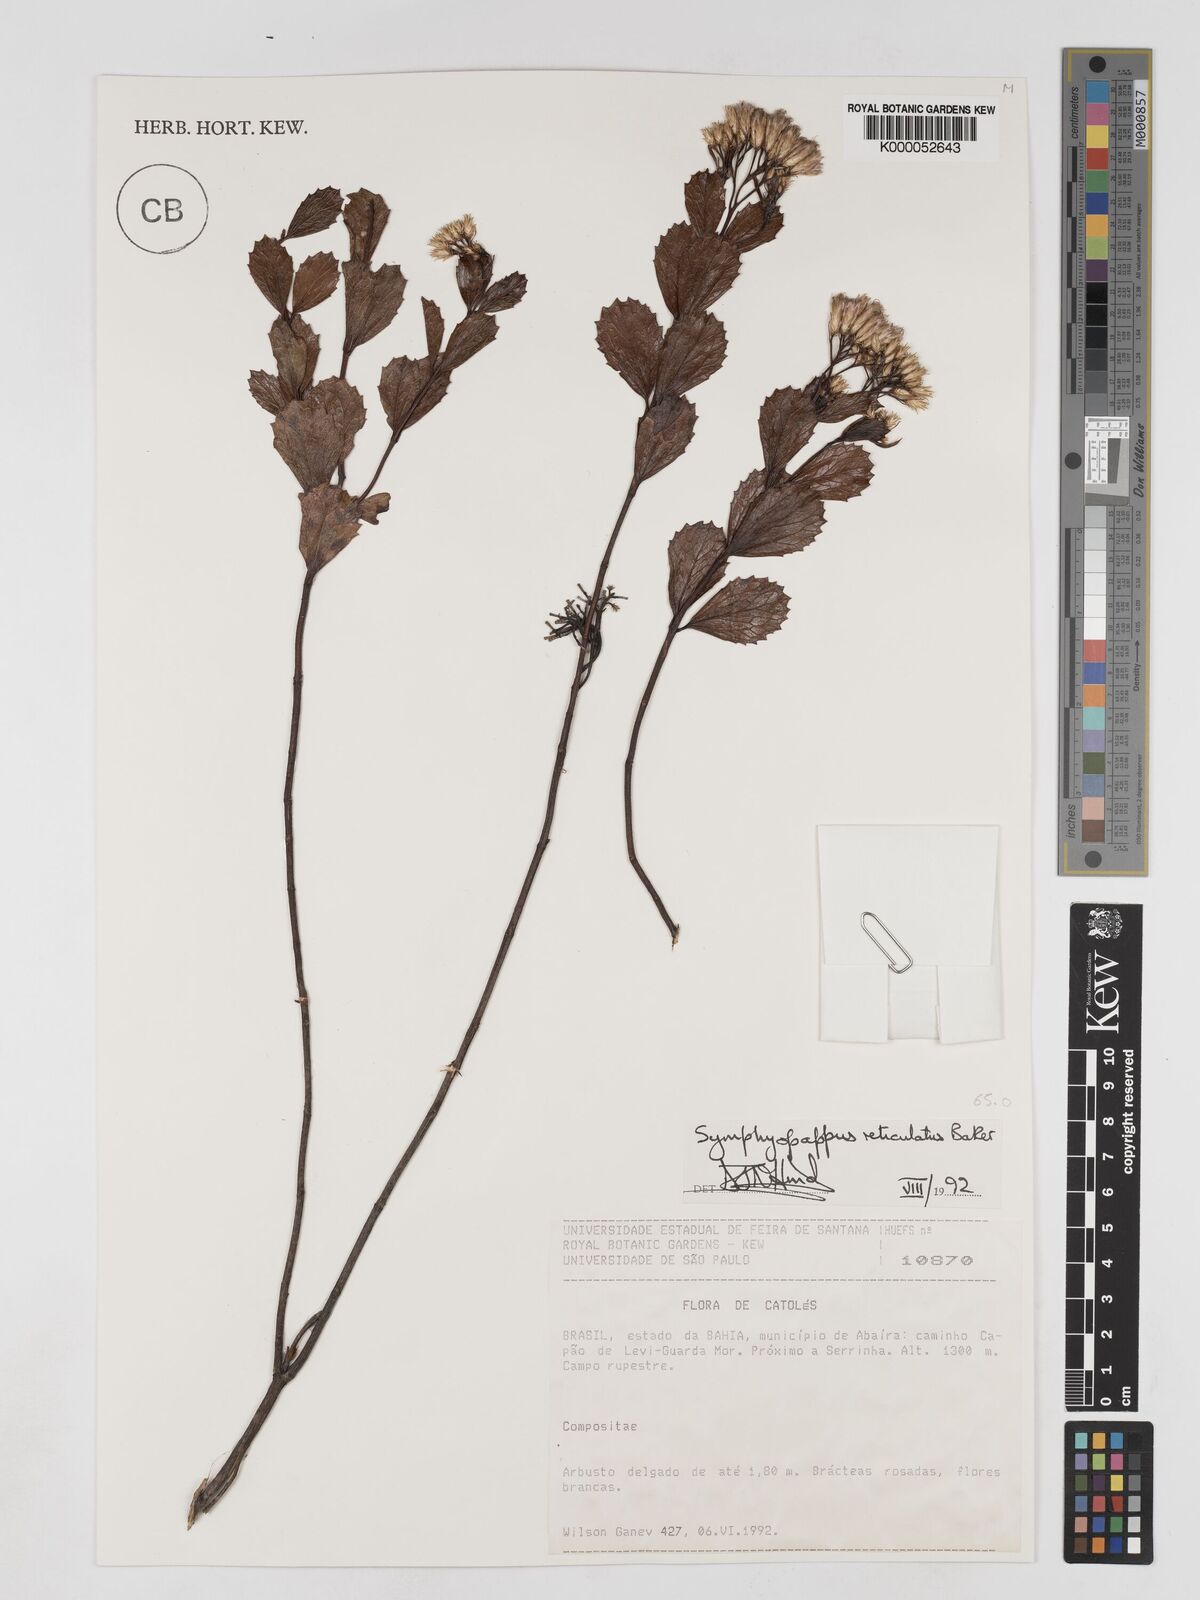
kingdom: Plantae
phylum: Tracheophyta
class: Magnoliopsida
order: Asterales
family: Asteraceae
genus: Symphyopappus
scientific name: Symphyopappus reticulatus
